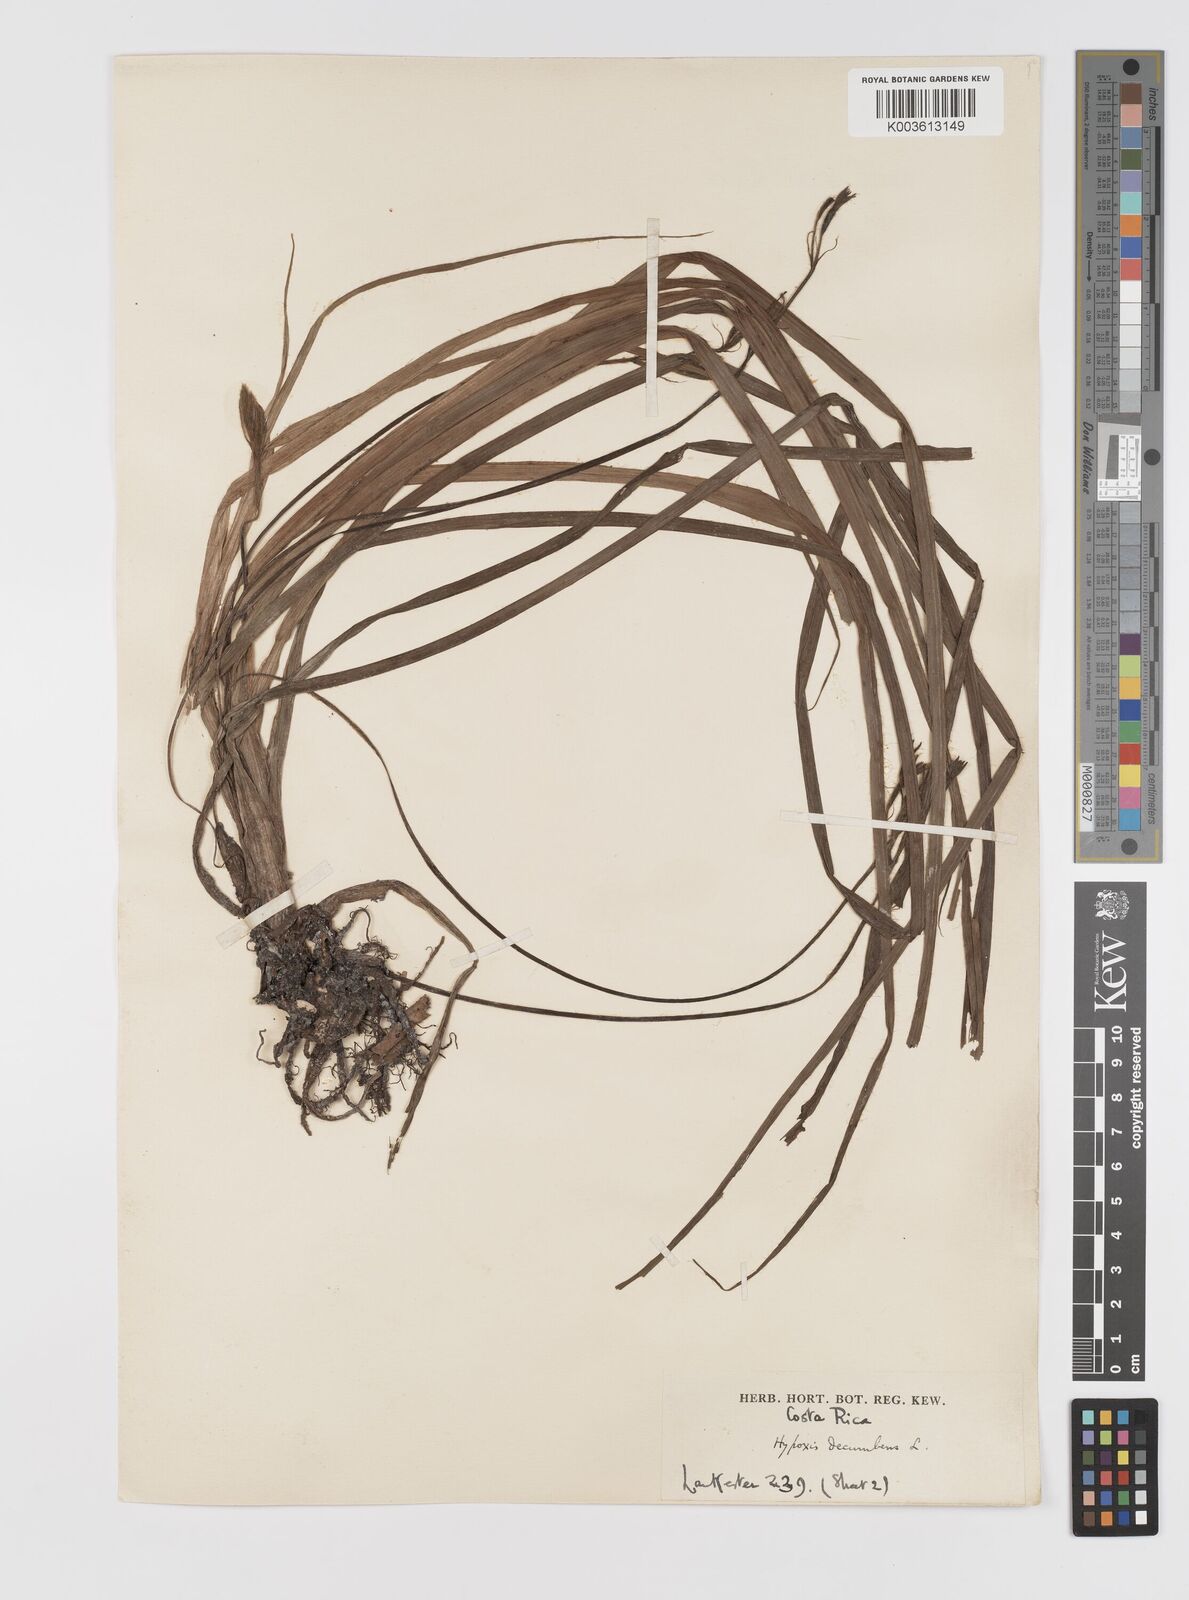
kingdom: Plantae
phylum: Tracheophyta
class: Liliopsida
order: Asparagales
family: Hypoxidaceae
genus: Hypoxis
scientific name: Hypoxis decumbens
